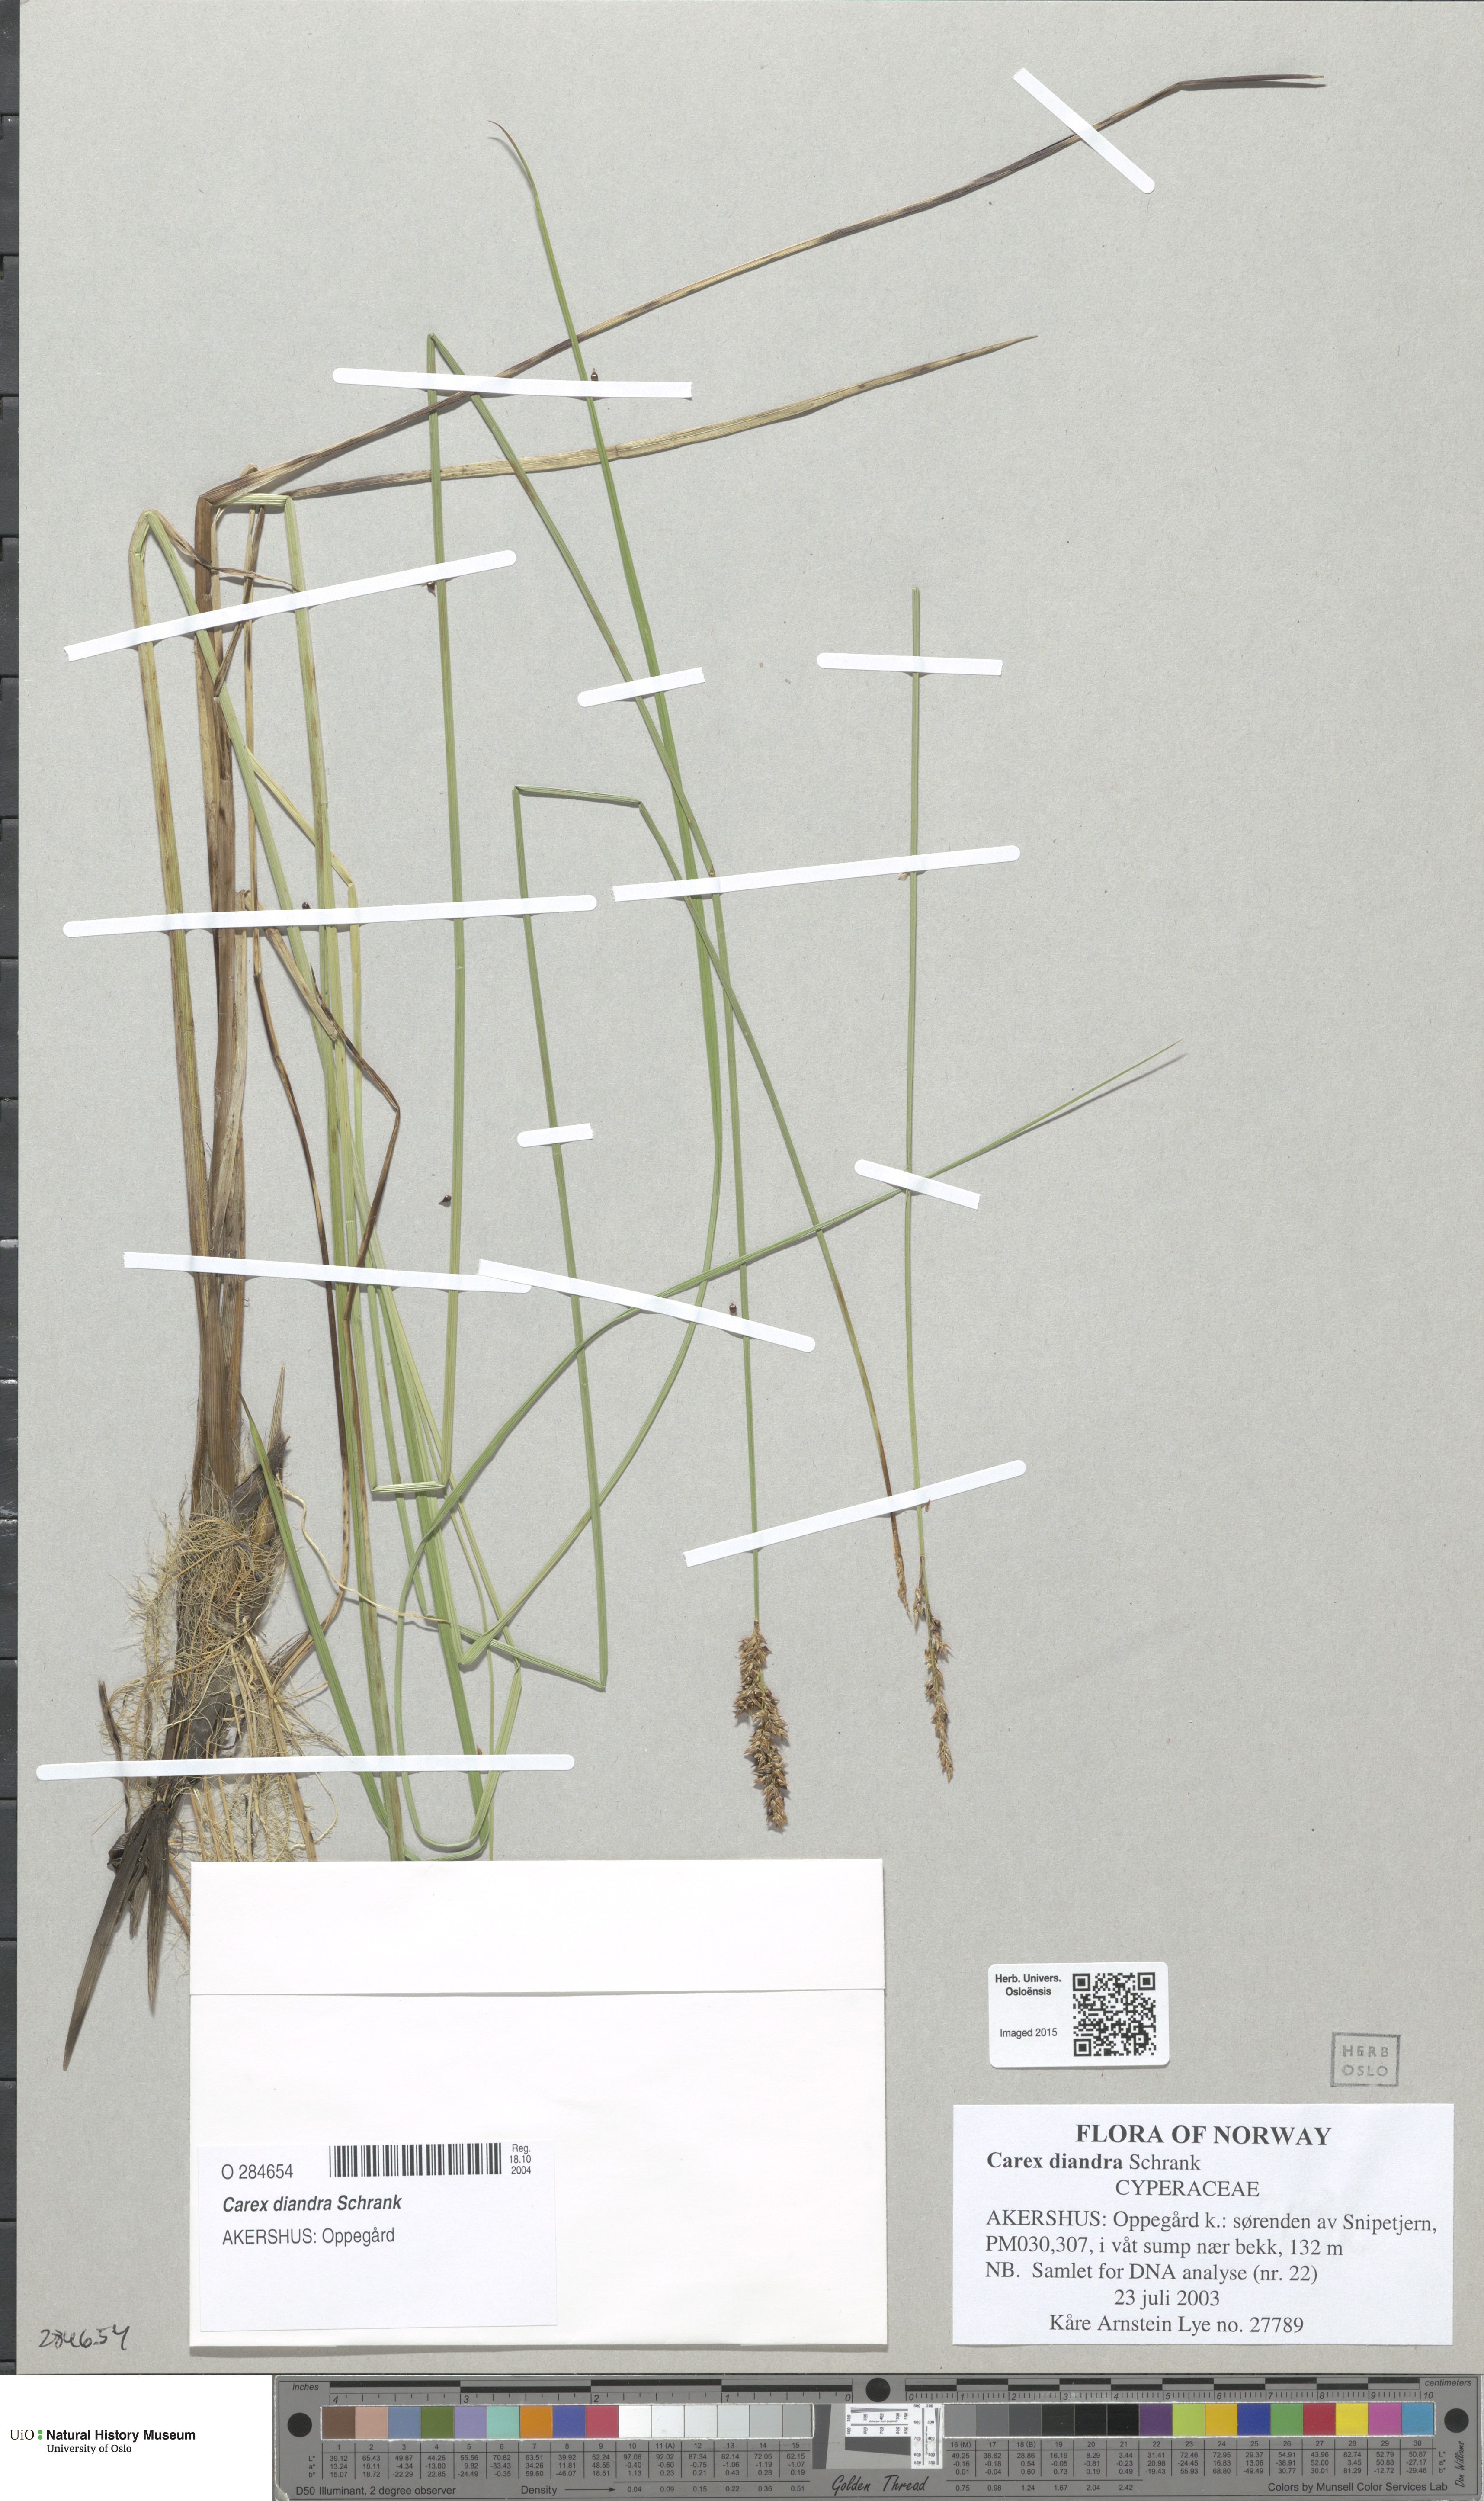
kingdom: Plantae
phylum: Tracheophyta
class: Liliopsida
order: Poales
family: Cyperaceae
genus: Carex
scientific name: Carex diandra
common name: Lesser tussock-sedge
